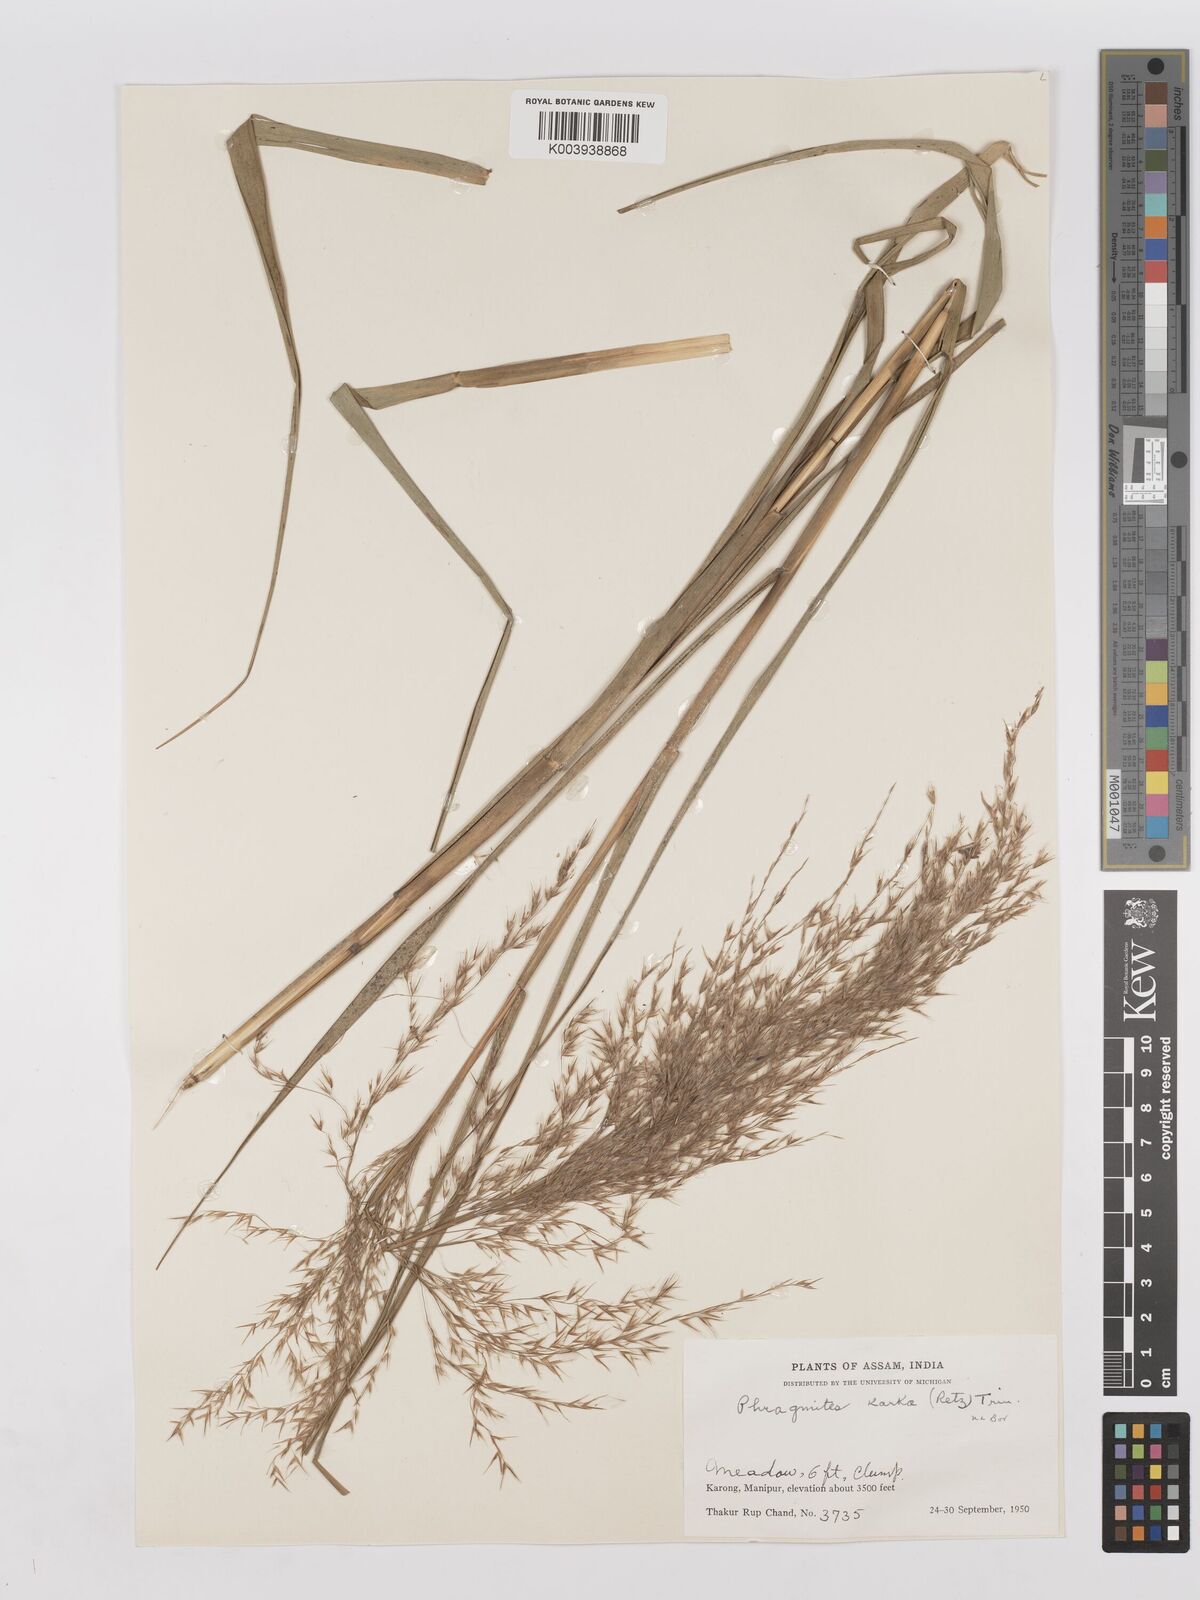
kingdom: Plantae
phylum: Tracheophyta
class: Liliopsida
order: Poales
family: Poaceae
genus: Phragmites
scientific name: Phragmites karka
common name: Tropical reed
